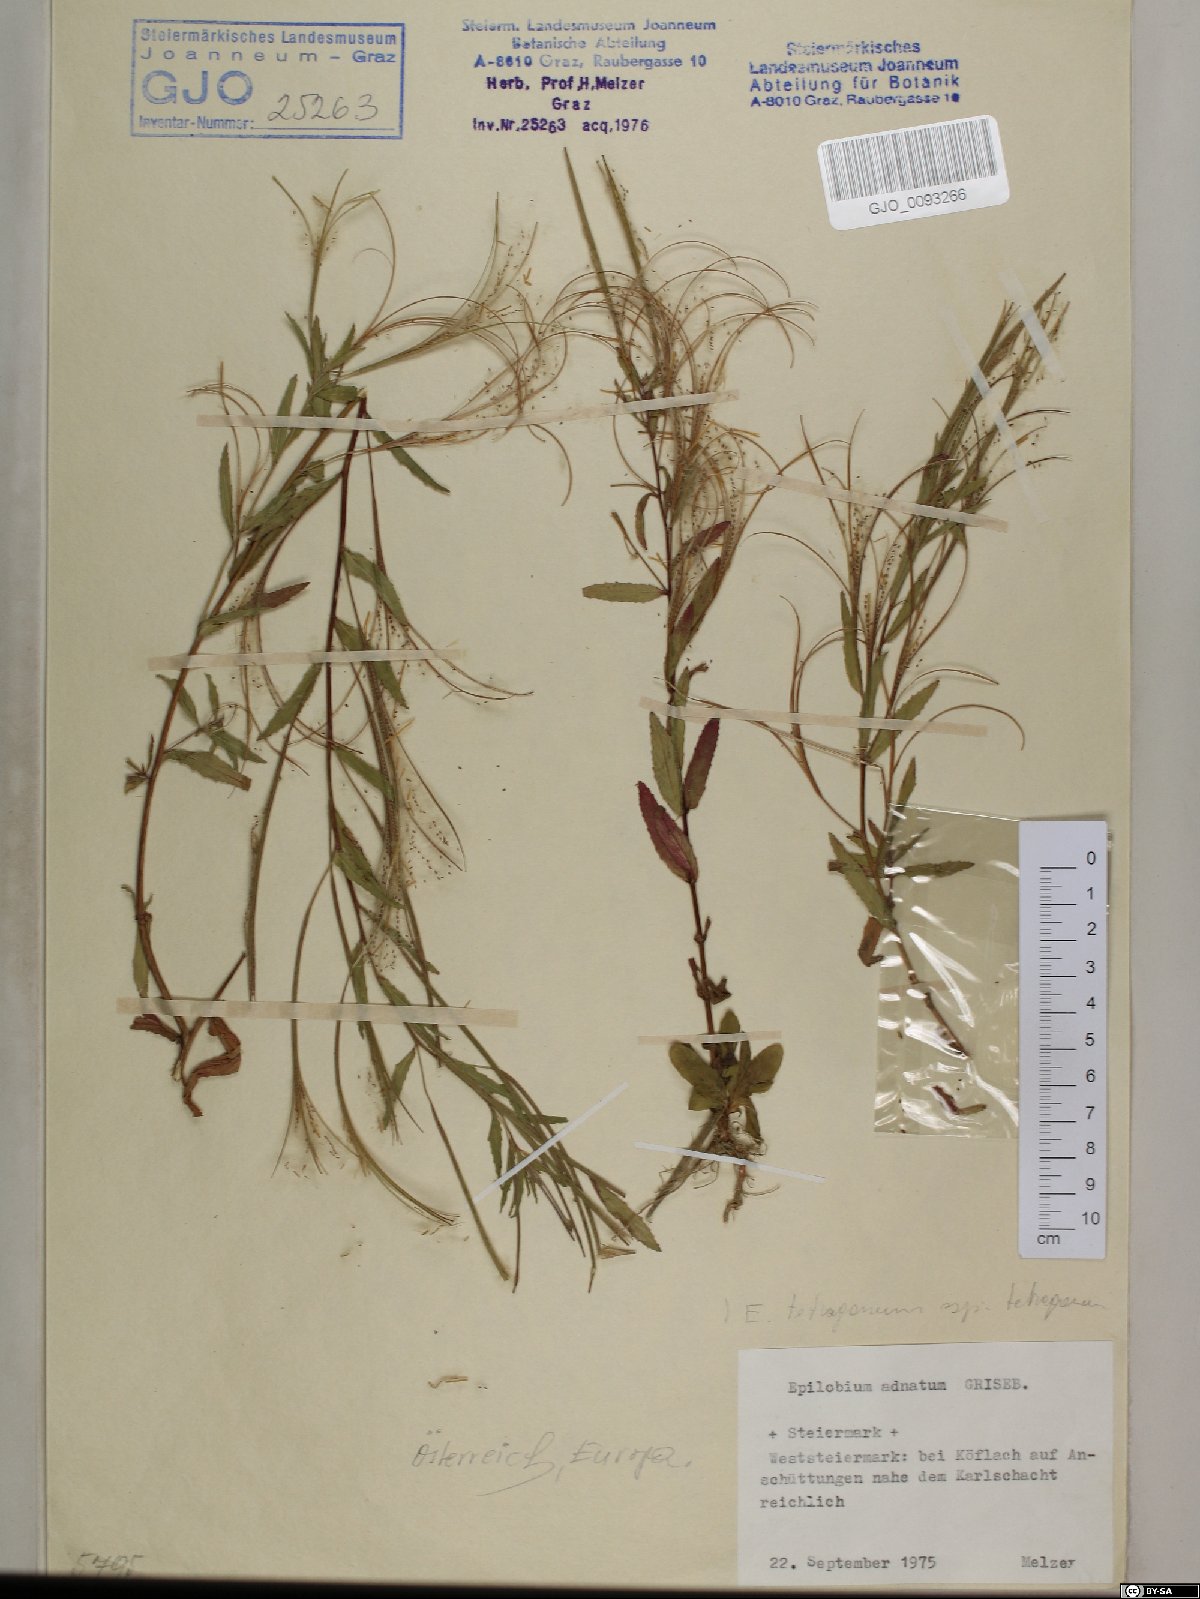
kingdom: Plantae
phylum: Tracheophyta
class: Magnoliopsida
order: Myrtales
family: Onagraceae
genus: Epilobium
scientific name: Epilobium tetragonum
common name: Square-stemmed willowherb
